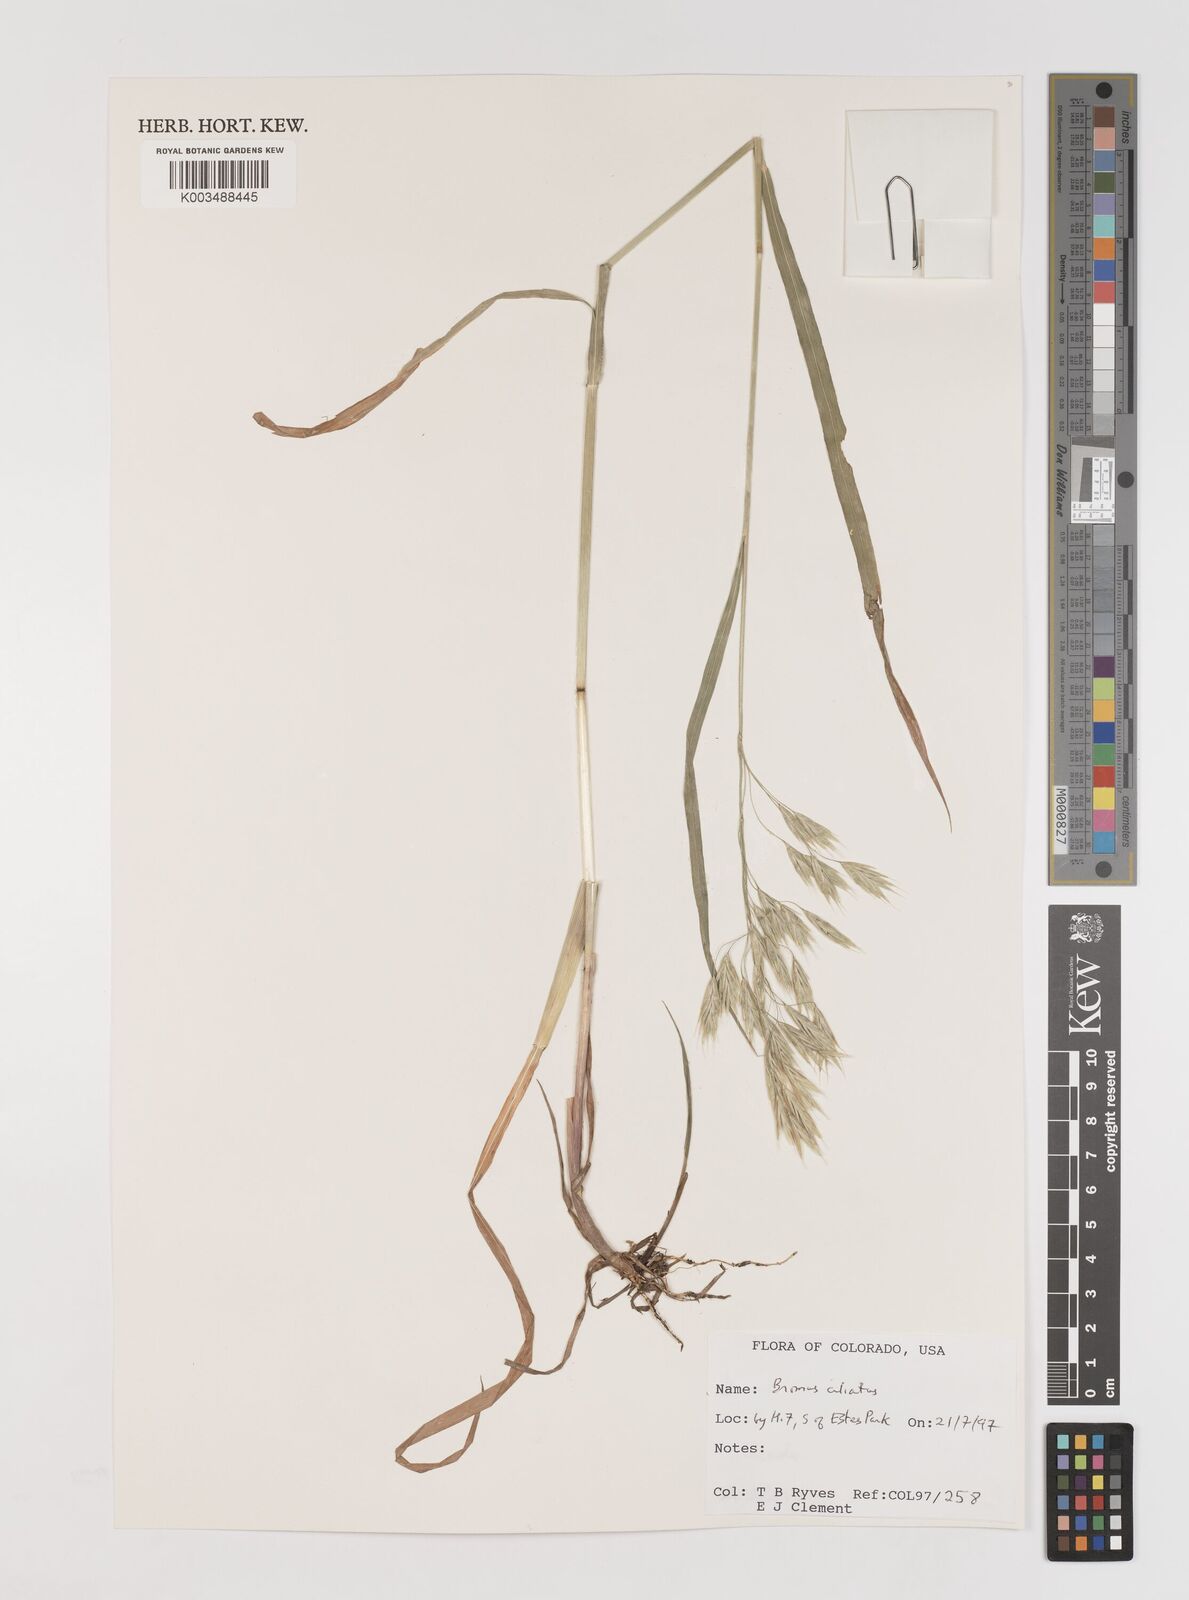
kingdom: Plantae
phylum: Tracheophyta
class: Liliopsida
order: Poales
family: Poaceae
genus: Bromus
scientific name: Bromus ciliatus
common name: Fringe brome
